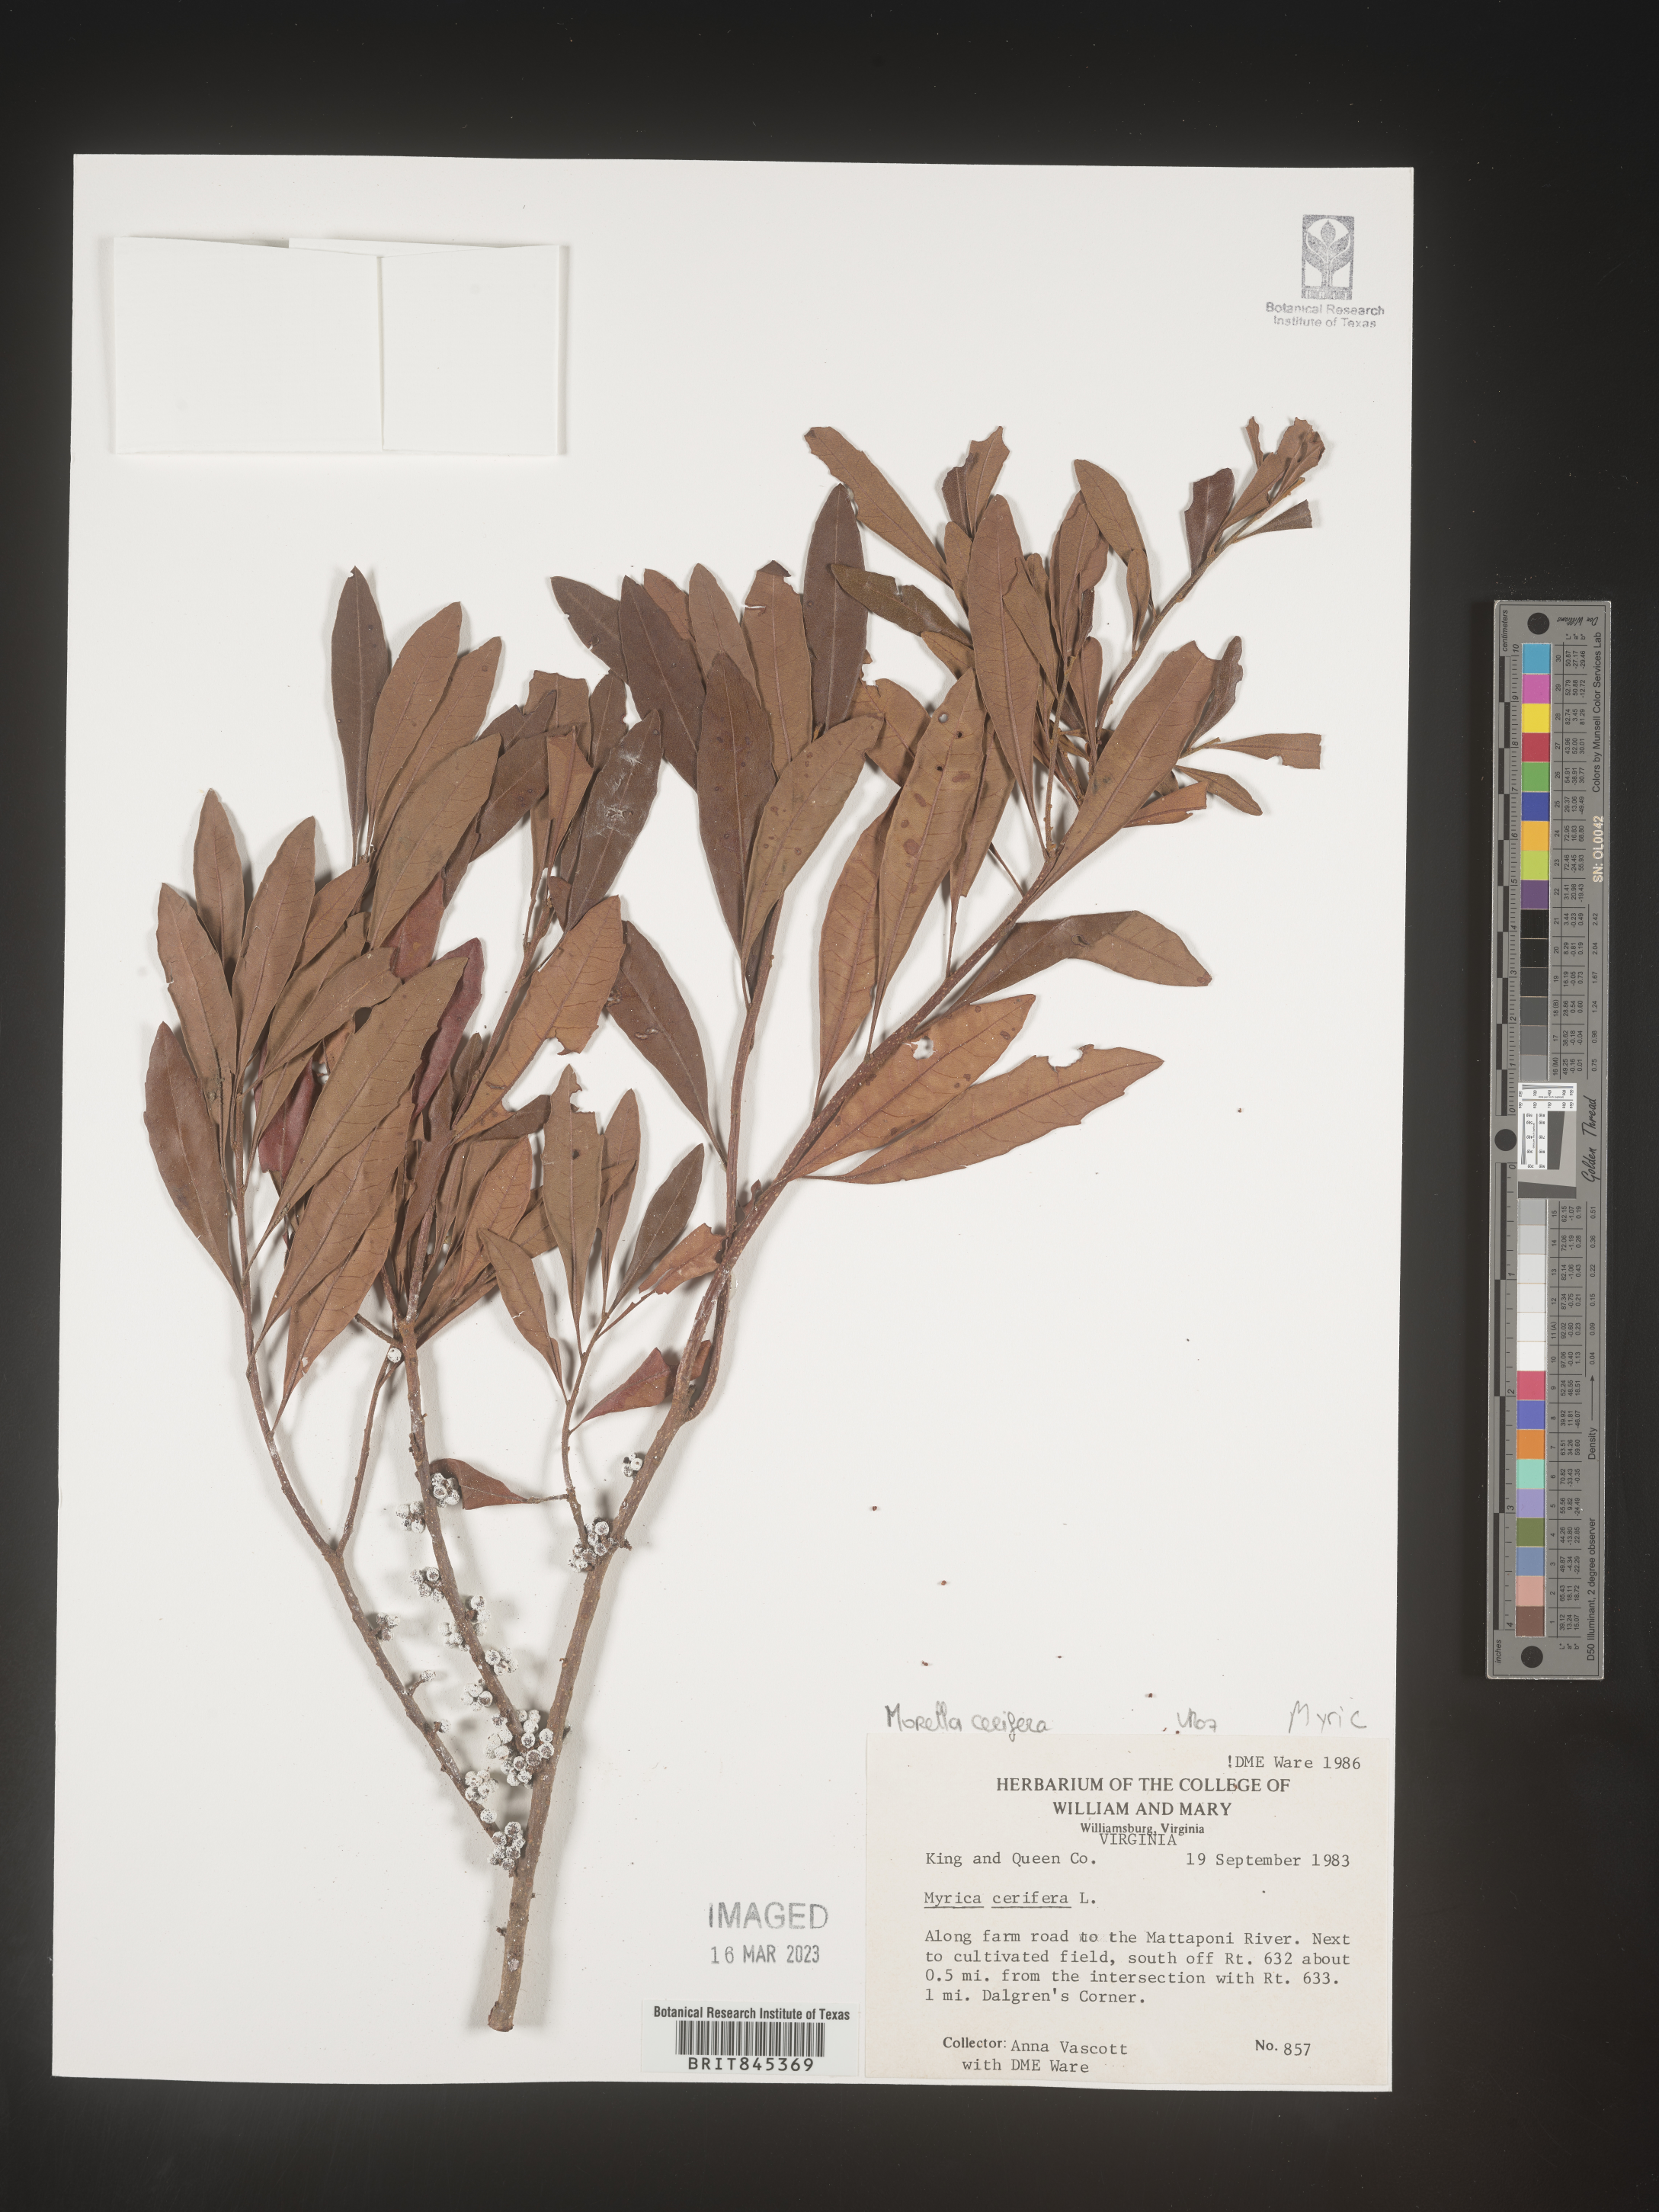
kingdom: Plantae
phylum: Tracheophyta
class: Magnoliopsida
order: Fagales
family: Myricaceae
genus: Morella
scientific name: Morella cerifera
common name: Wax myrtle
